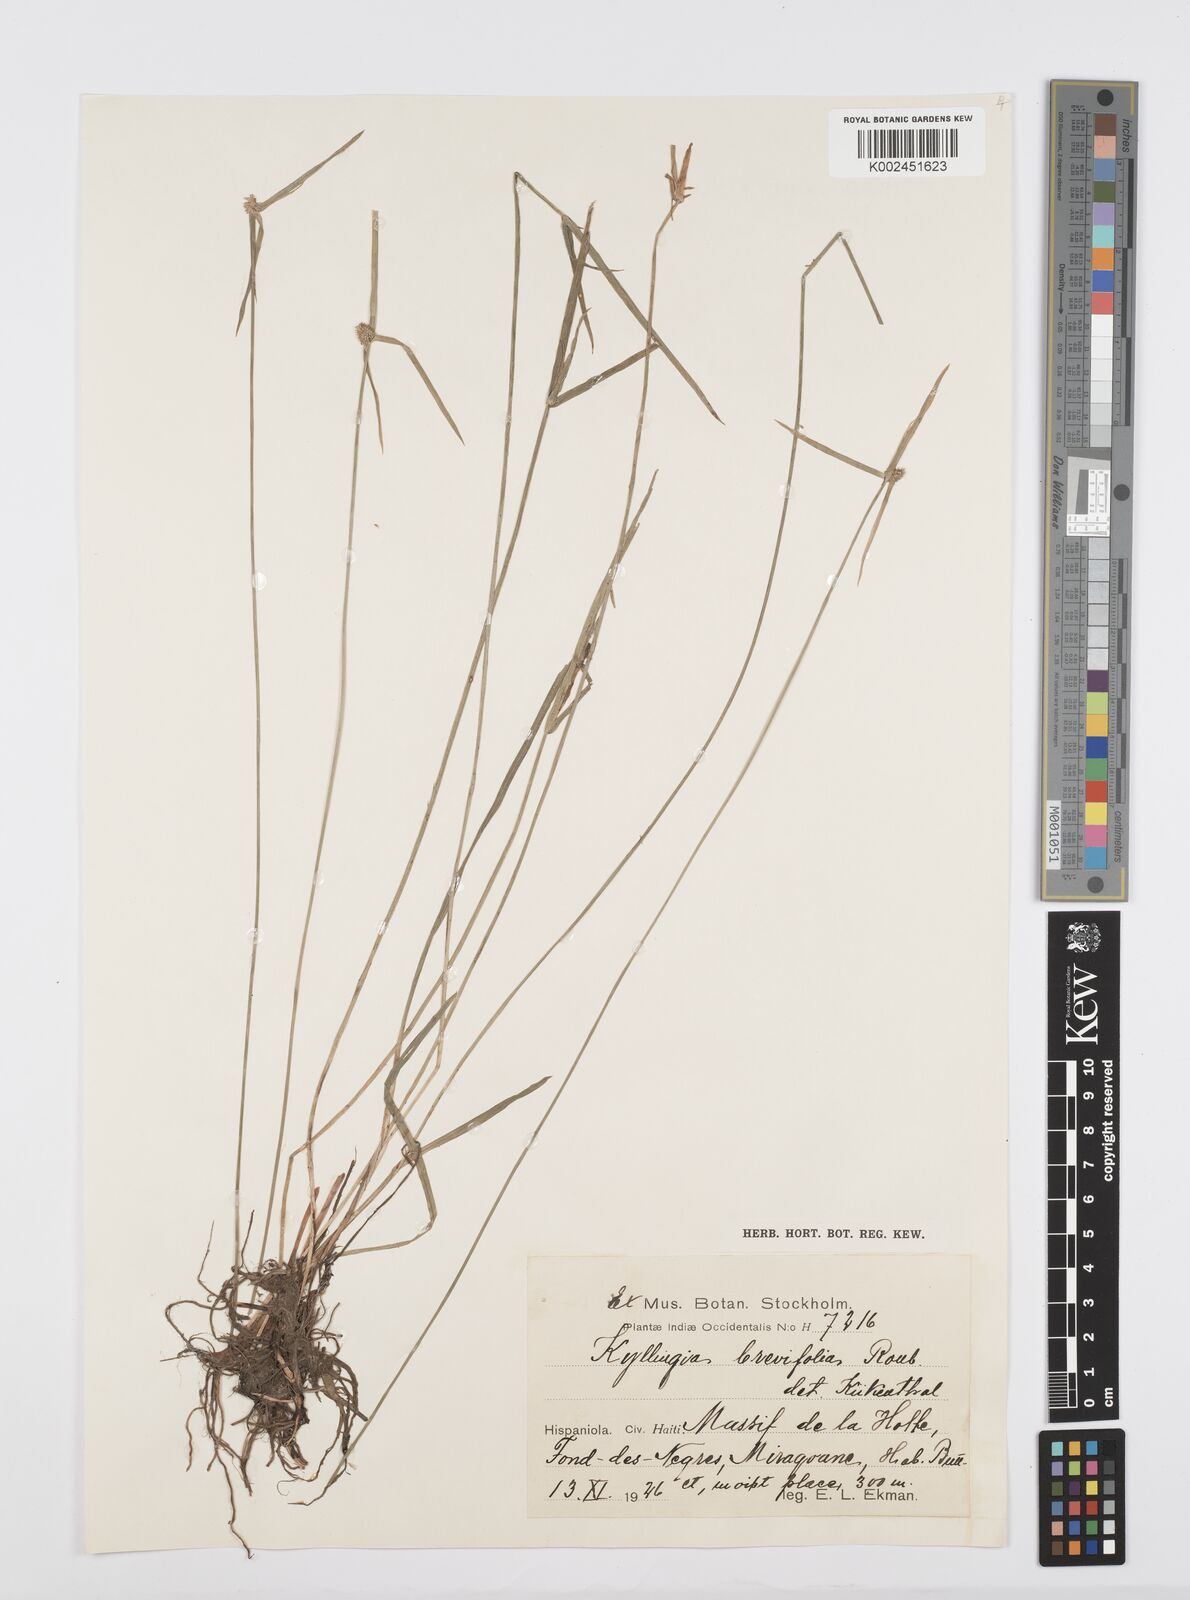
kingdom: Plantae
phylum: Tracheophyta
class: Liliopsida
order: Poales
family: Cyperaceae
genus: Cyperus
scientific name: Cyperus brevifolius
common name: Globe kyllinga
